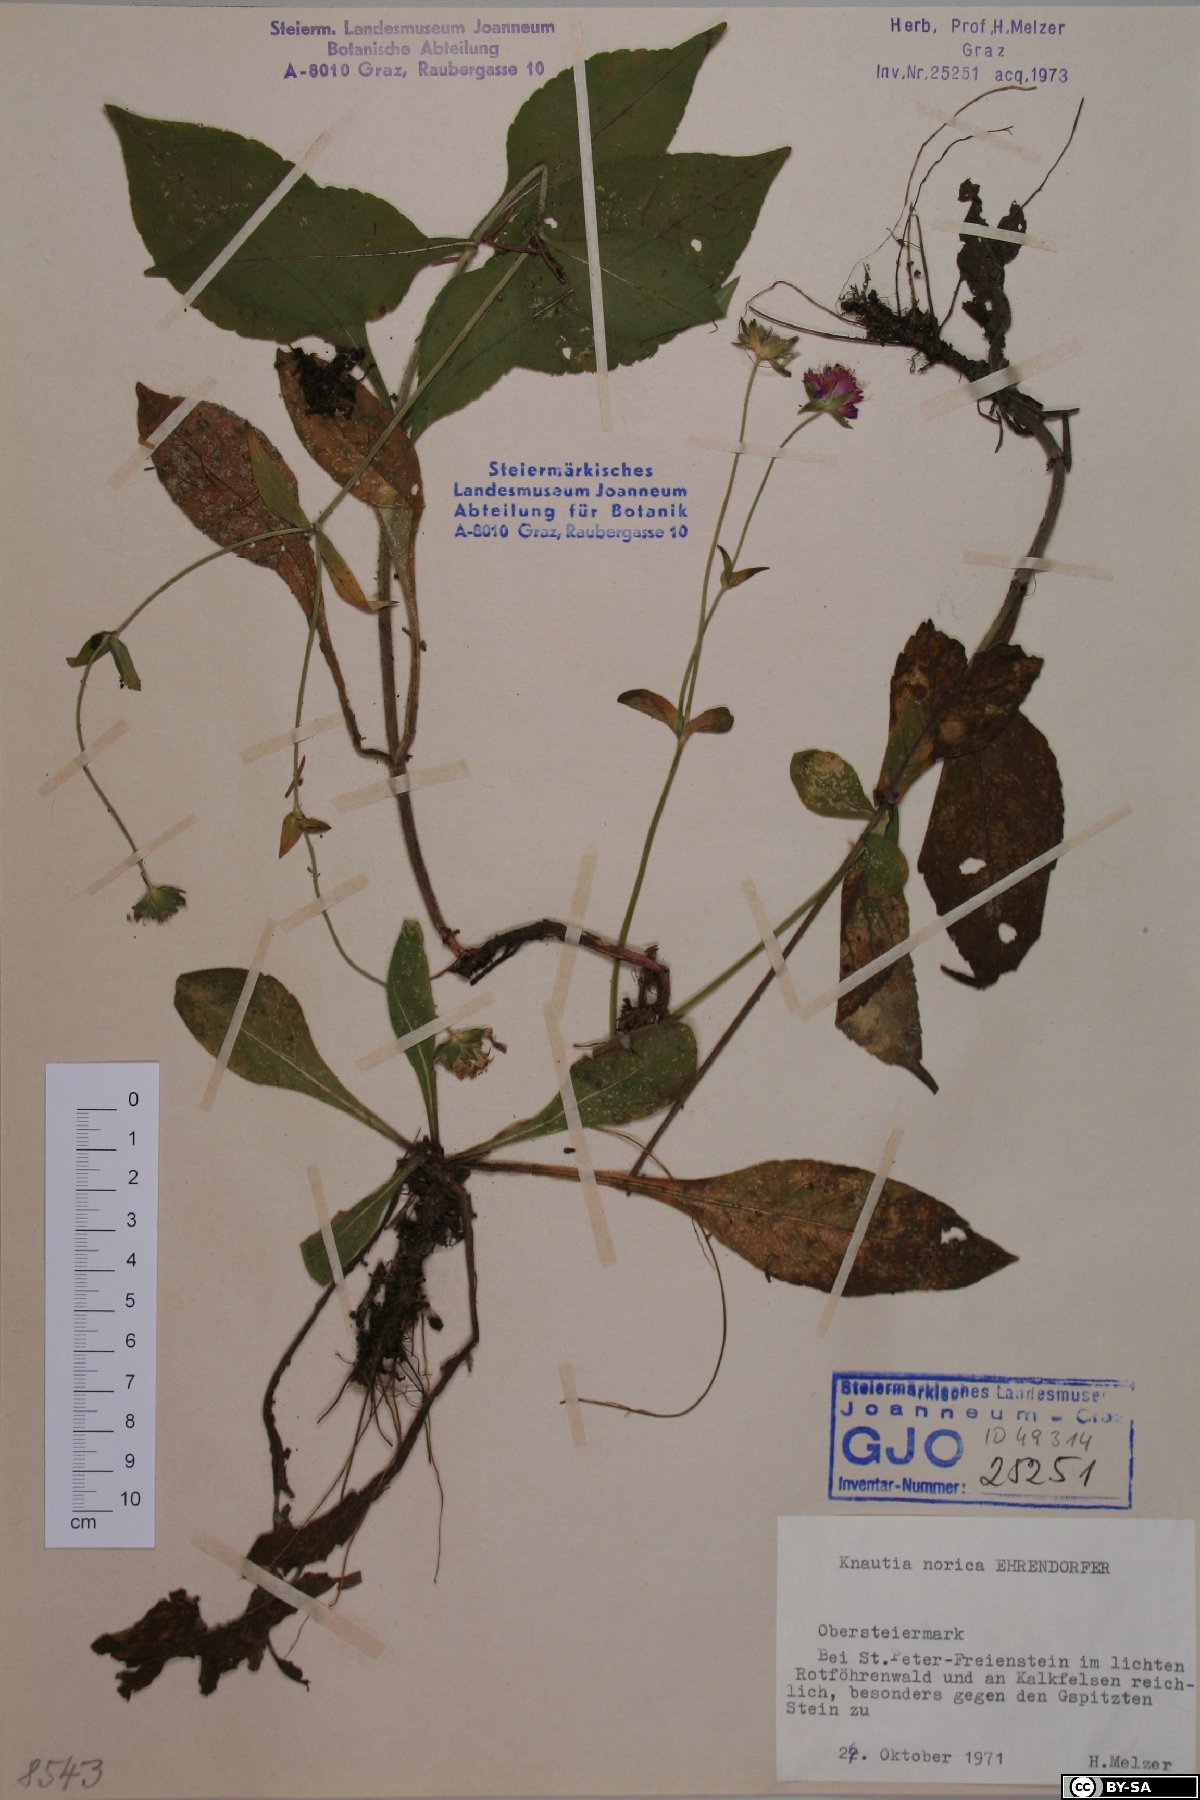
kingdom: Plantae
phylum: Tracheophyta
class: Magnoliopsida
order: Dipsacales
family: Caprifoliaceae
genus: Knautia
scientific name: Knautia norica
